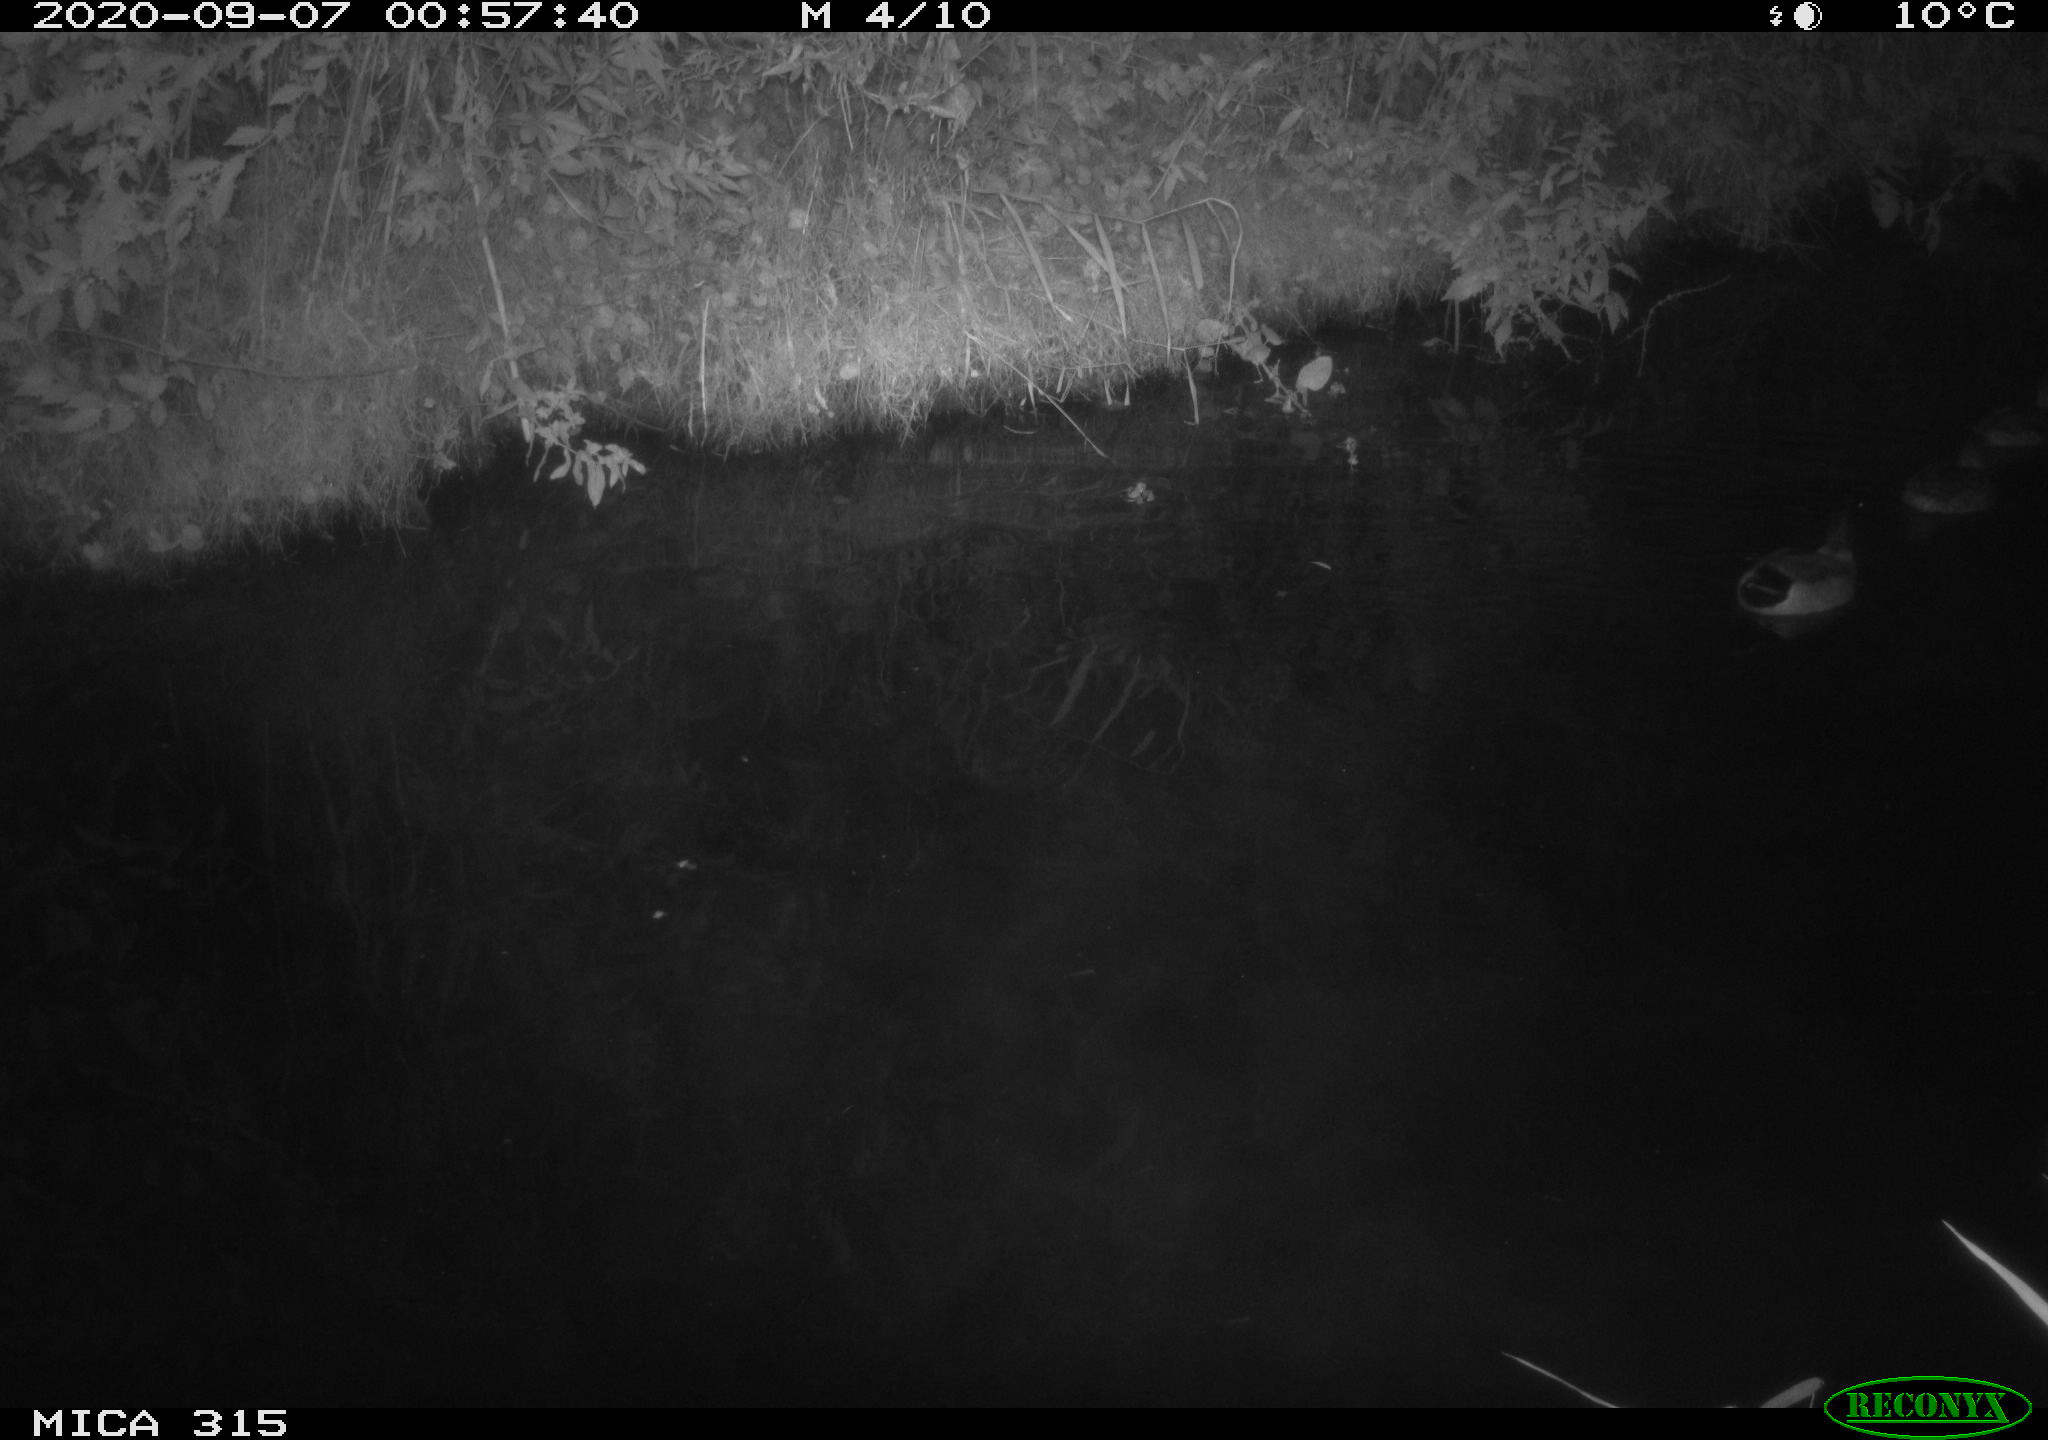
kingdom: Animalia
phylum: Chordata
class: Aves
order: Anseriformes
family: Anatidae
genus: Anas
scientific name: Anas platyrhynchos
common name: Mallard
